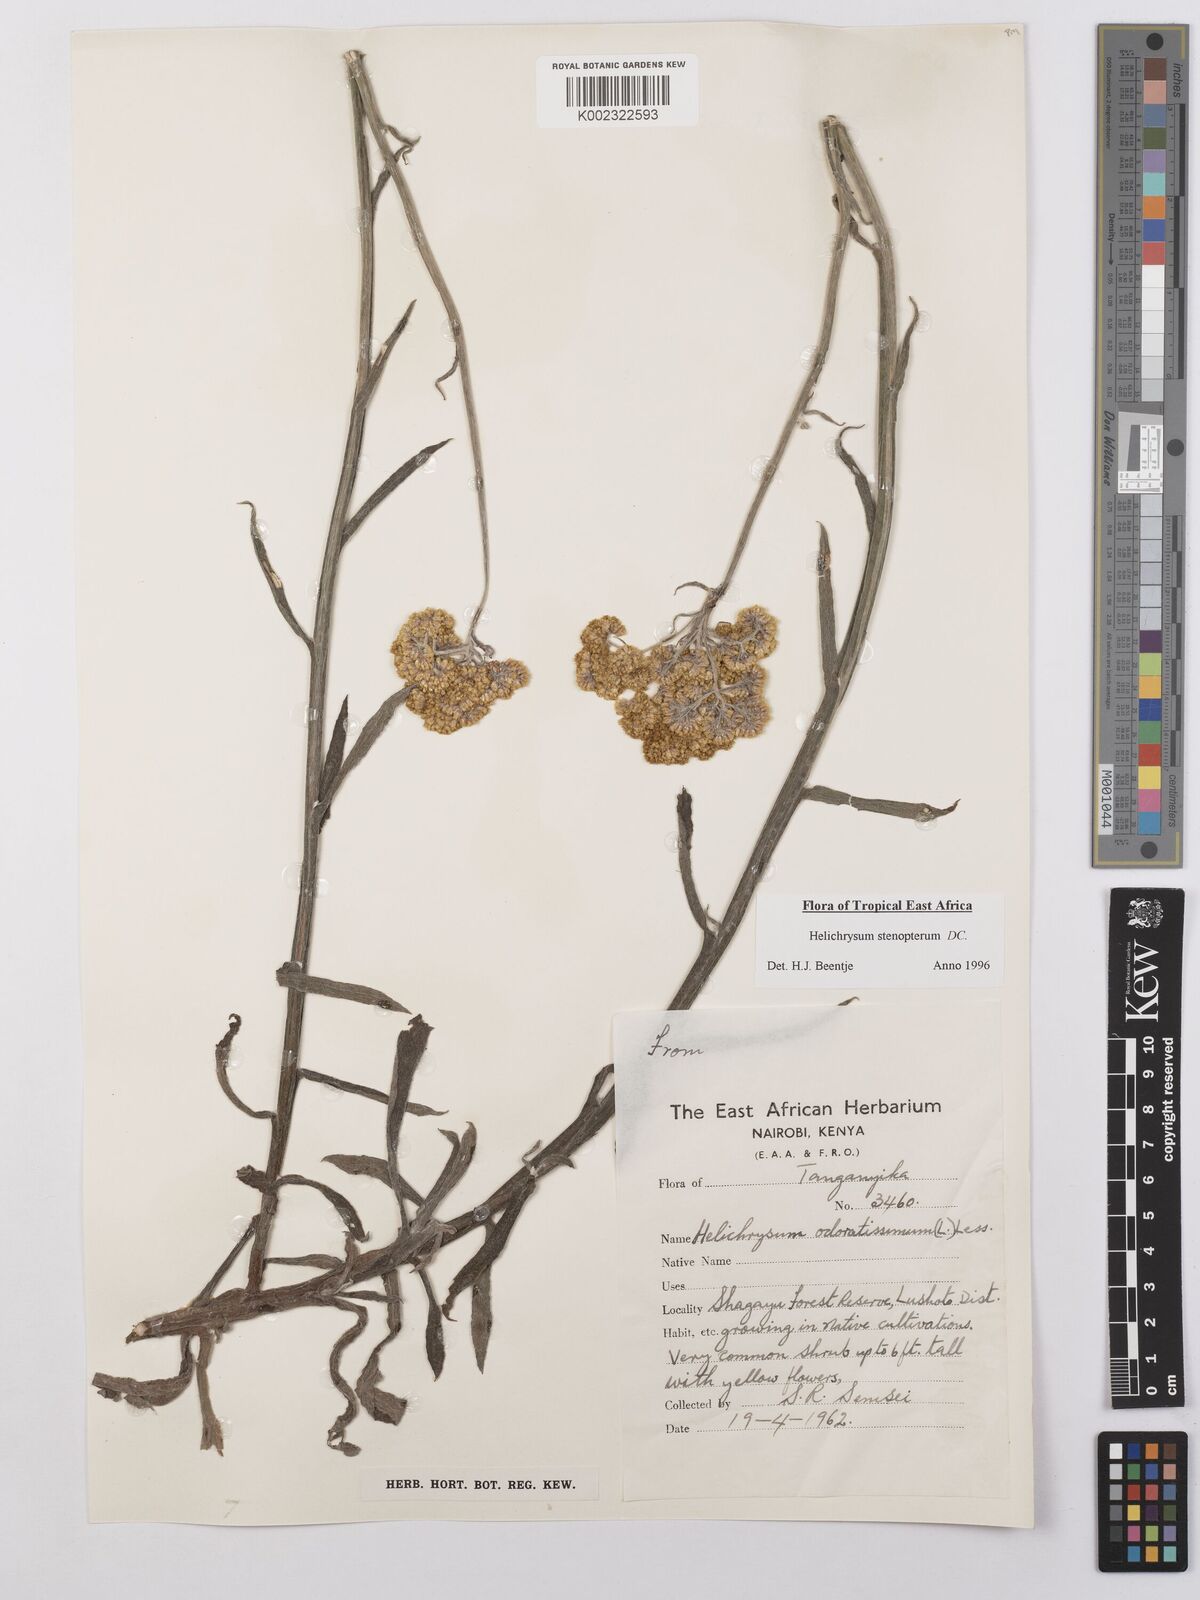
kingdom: Plantae
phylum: Tracheophyta
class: Magnoliopsida
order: Asterales
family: Asteraceae
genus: Helichrysum
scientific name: Helichrysum stenopterum
